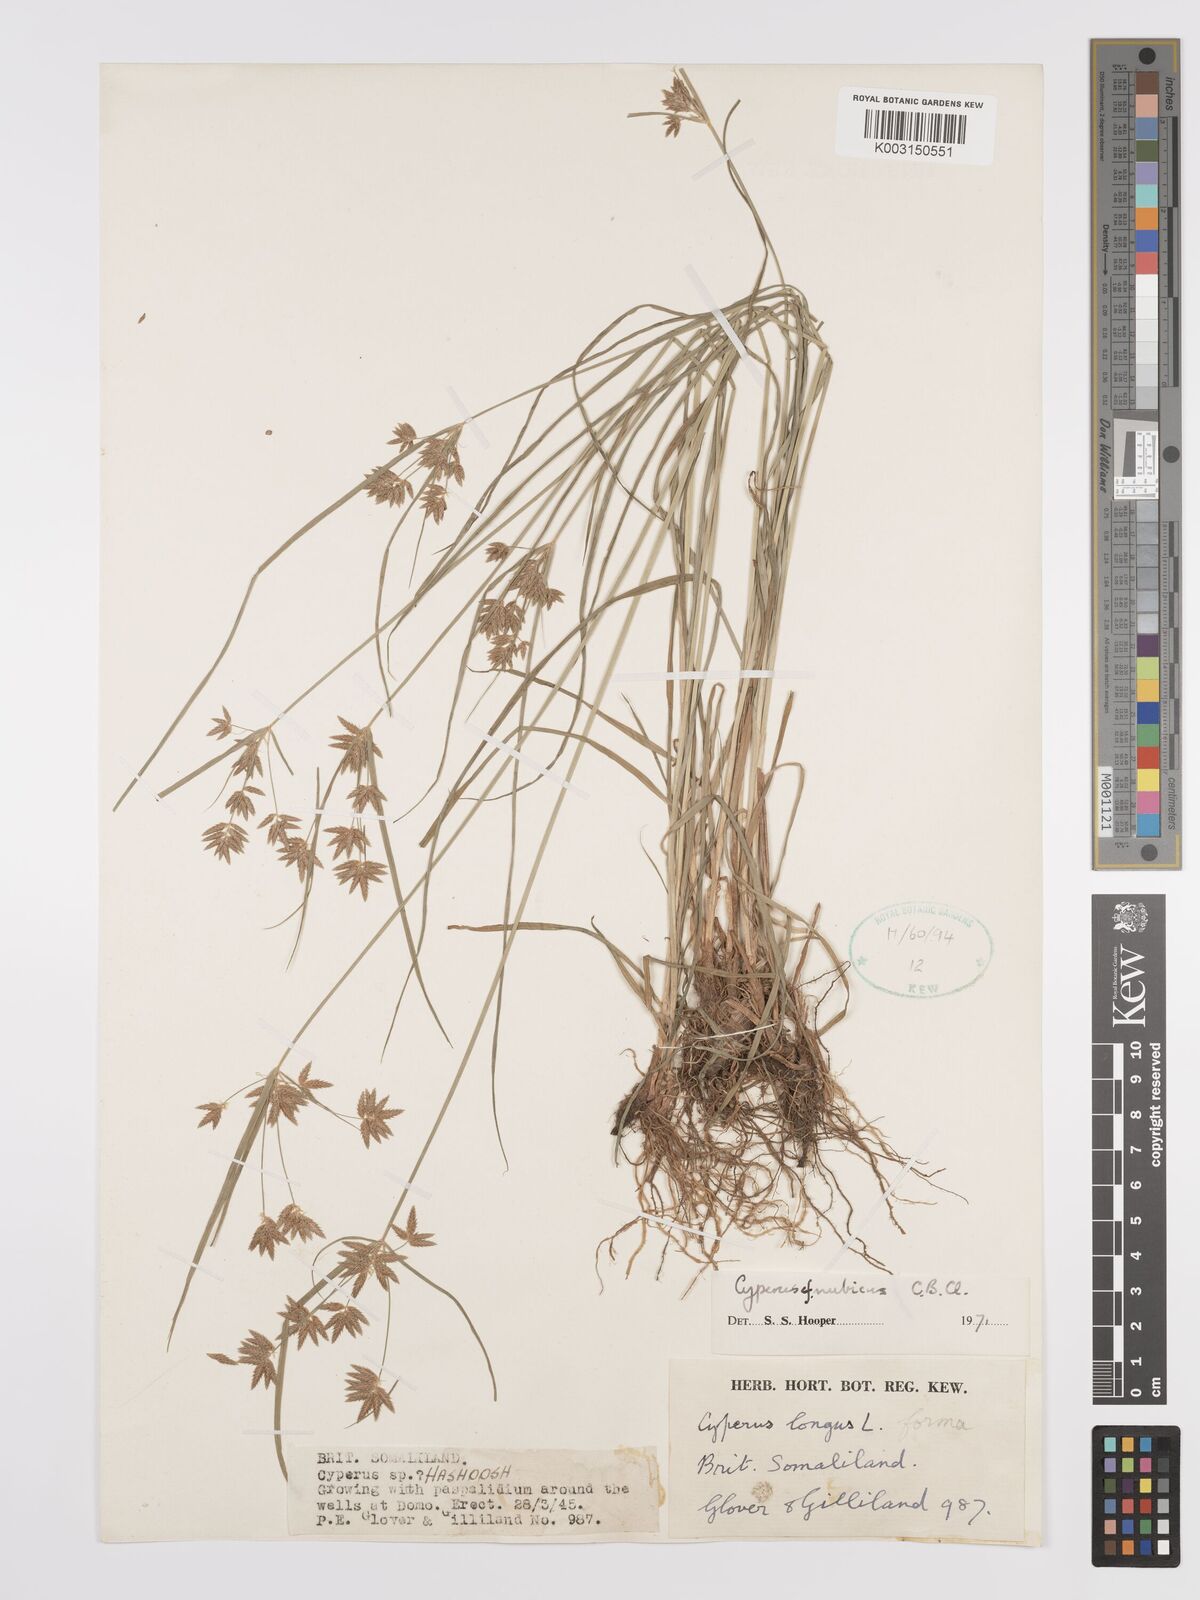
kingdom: Plantae
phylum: Tracheophyta
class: Liliopsida
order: Poales
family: Cyperaceae
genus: Cyperus
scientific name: Cyperus nubicus
